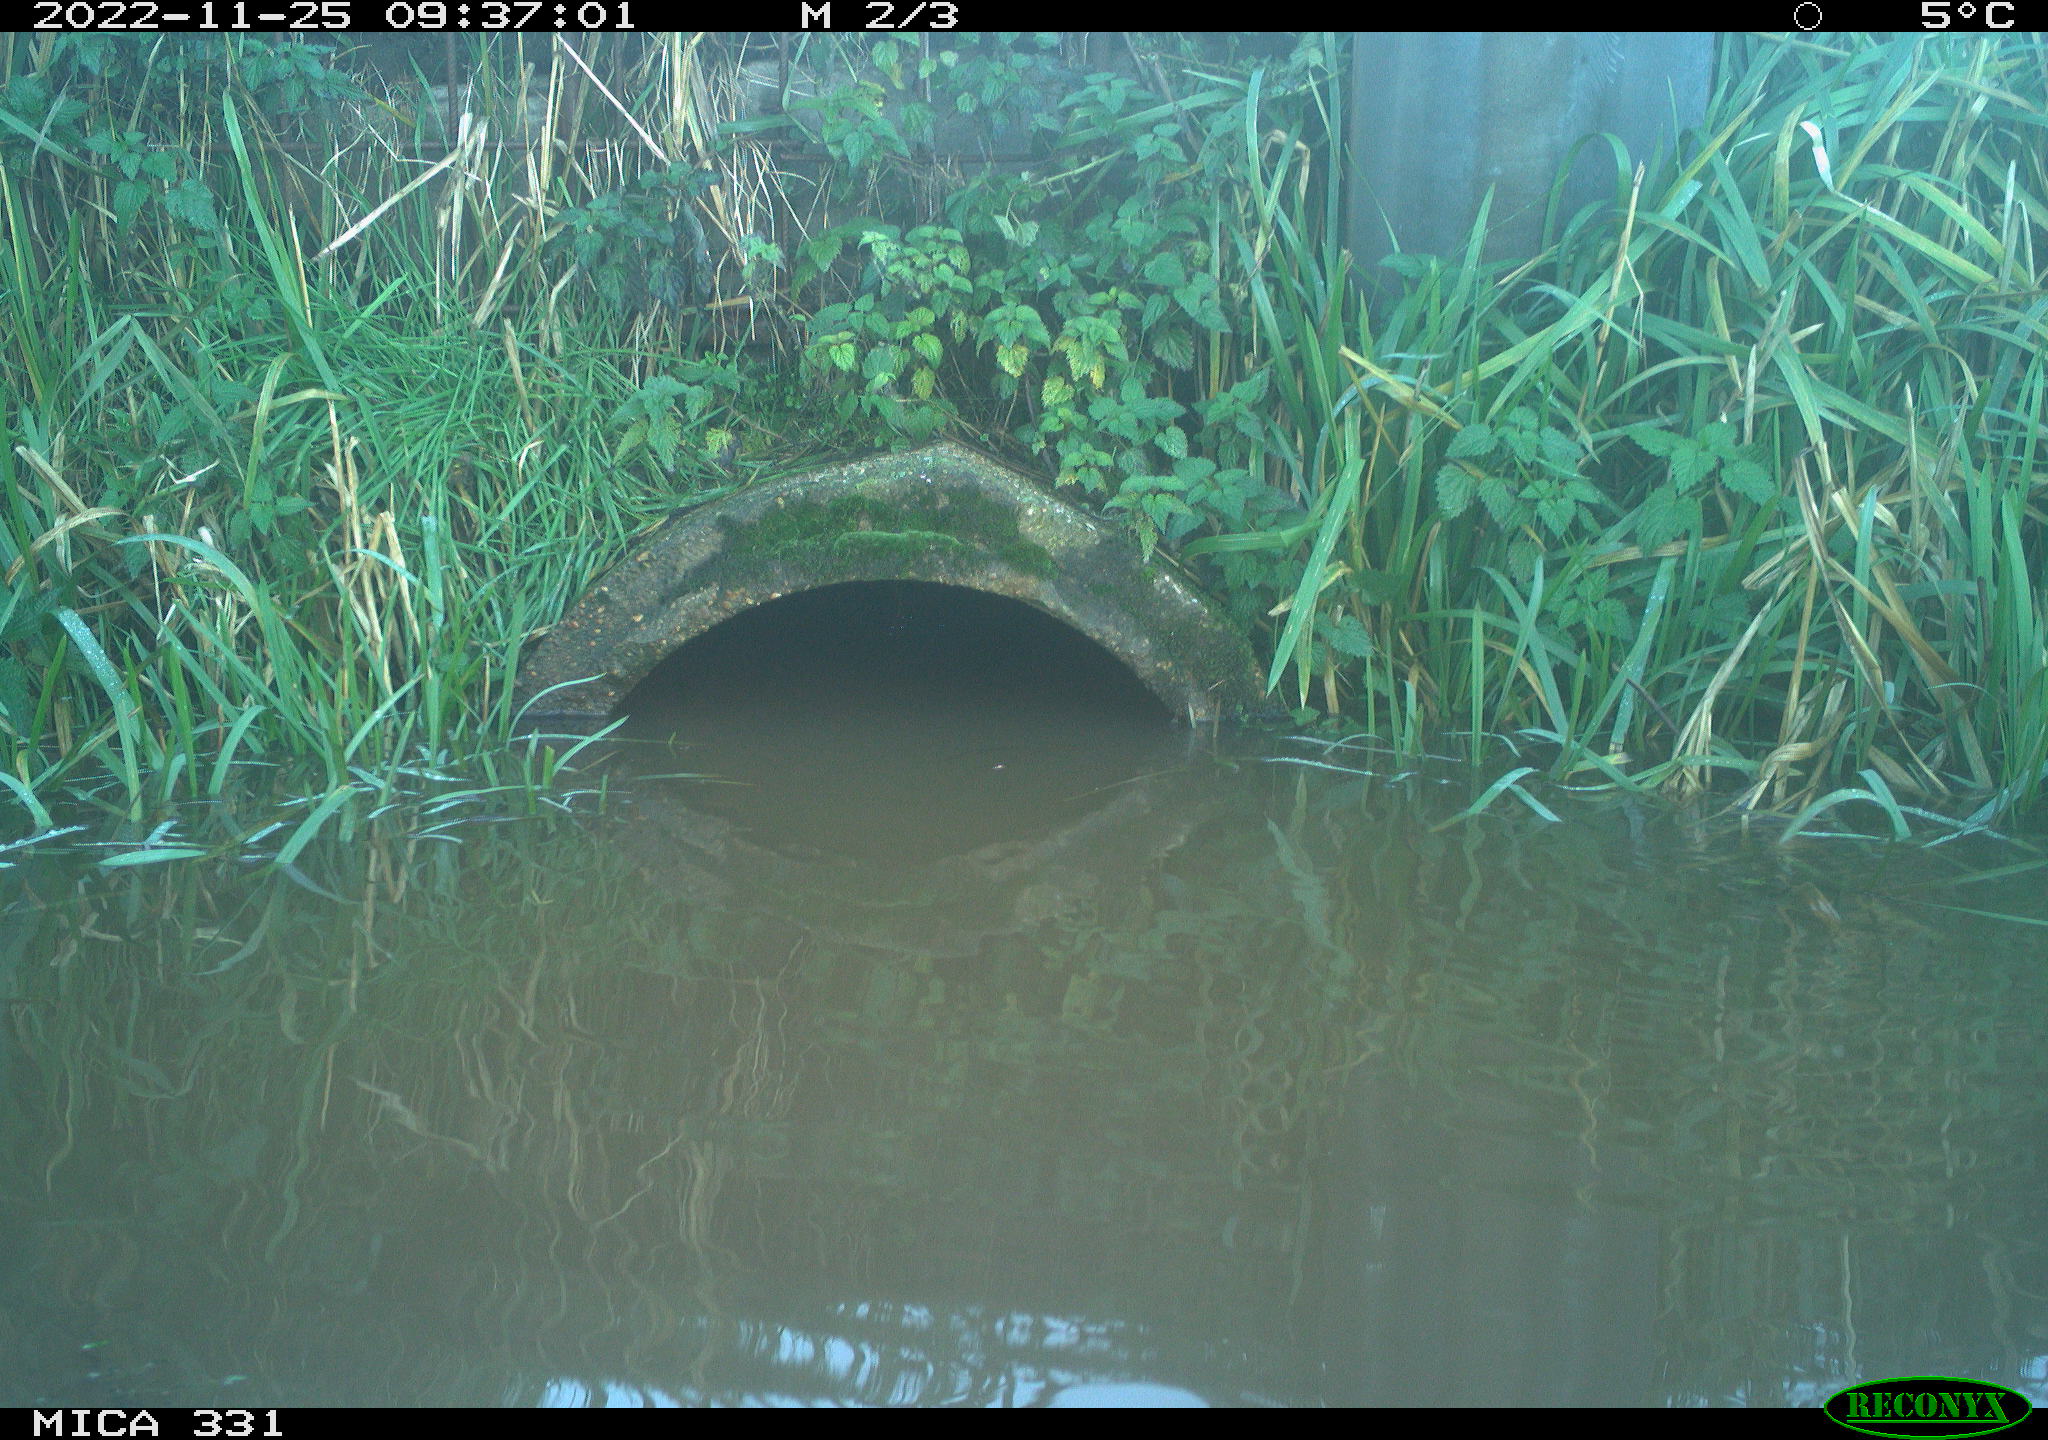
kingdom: Animalia
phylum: Chordata
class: Aves
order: Gruiformes
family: Rallidae
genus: Gallinula
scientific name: Gallinula chloropus
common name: Common moorhen
